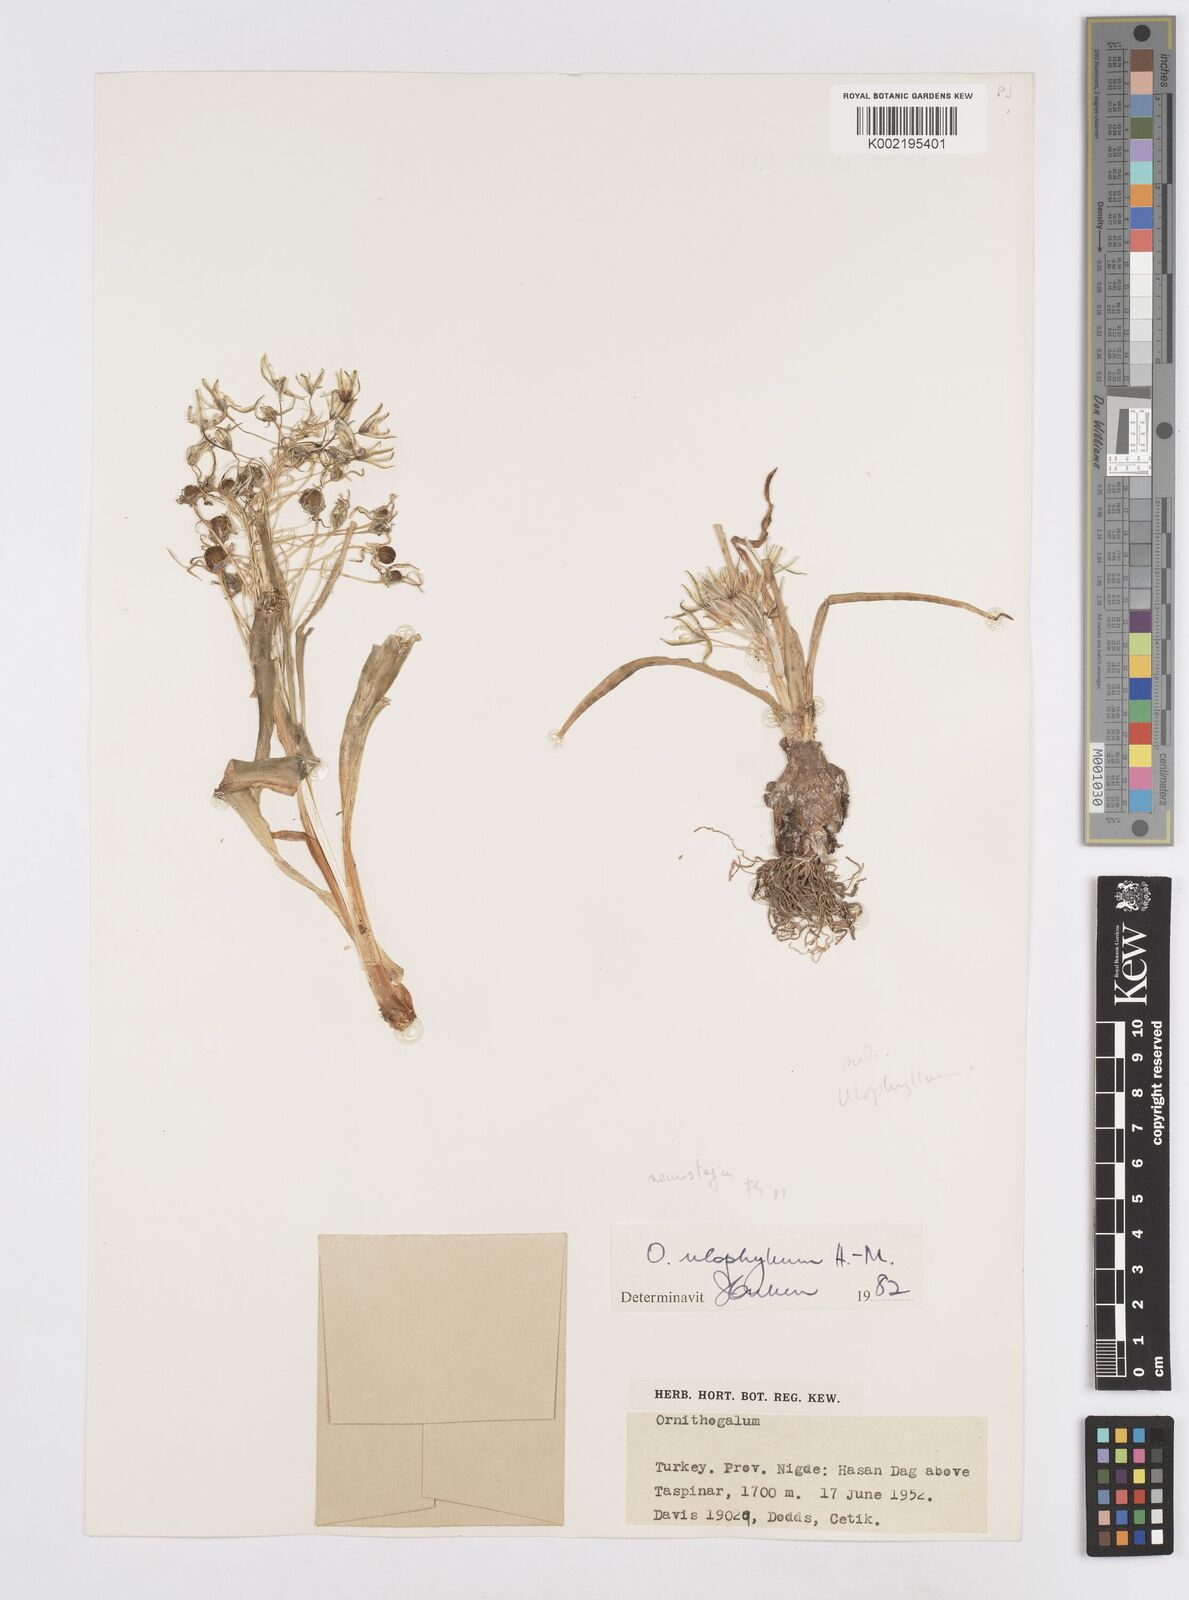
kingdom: Plantae
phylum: Tracheophyta
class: Liliopsida
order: Asparagales
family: Asparagaceae
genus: Ornithogalum
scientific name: Ornithogalum neurostegium
